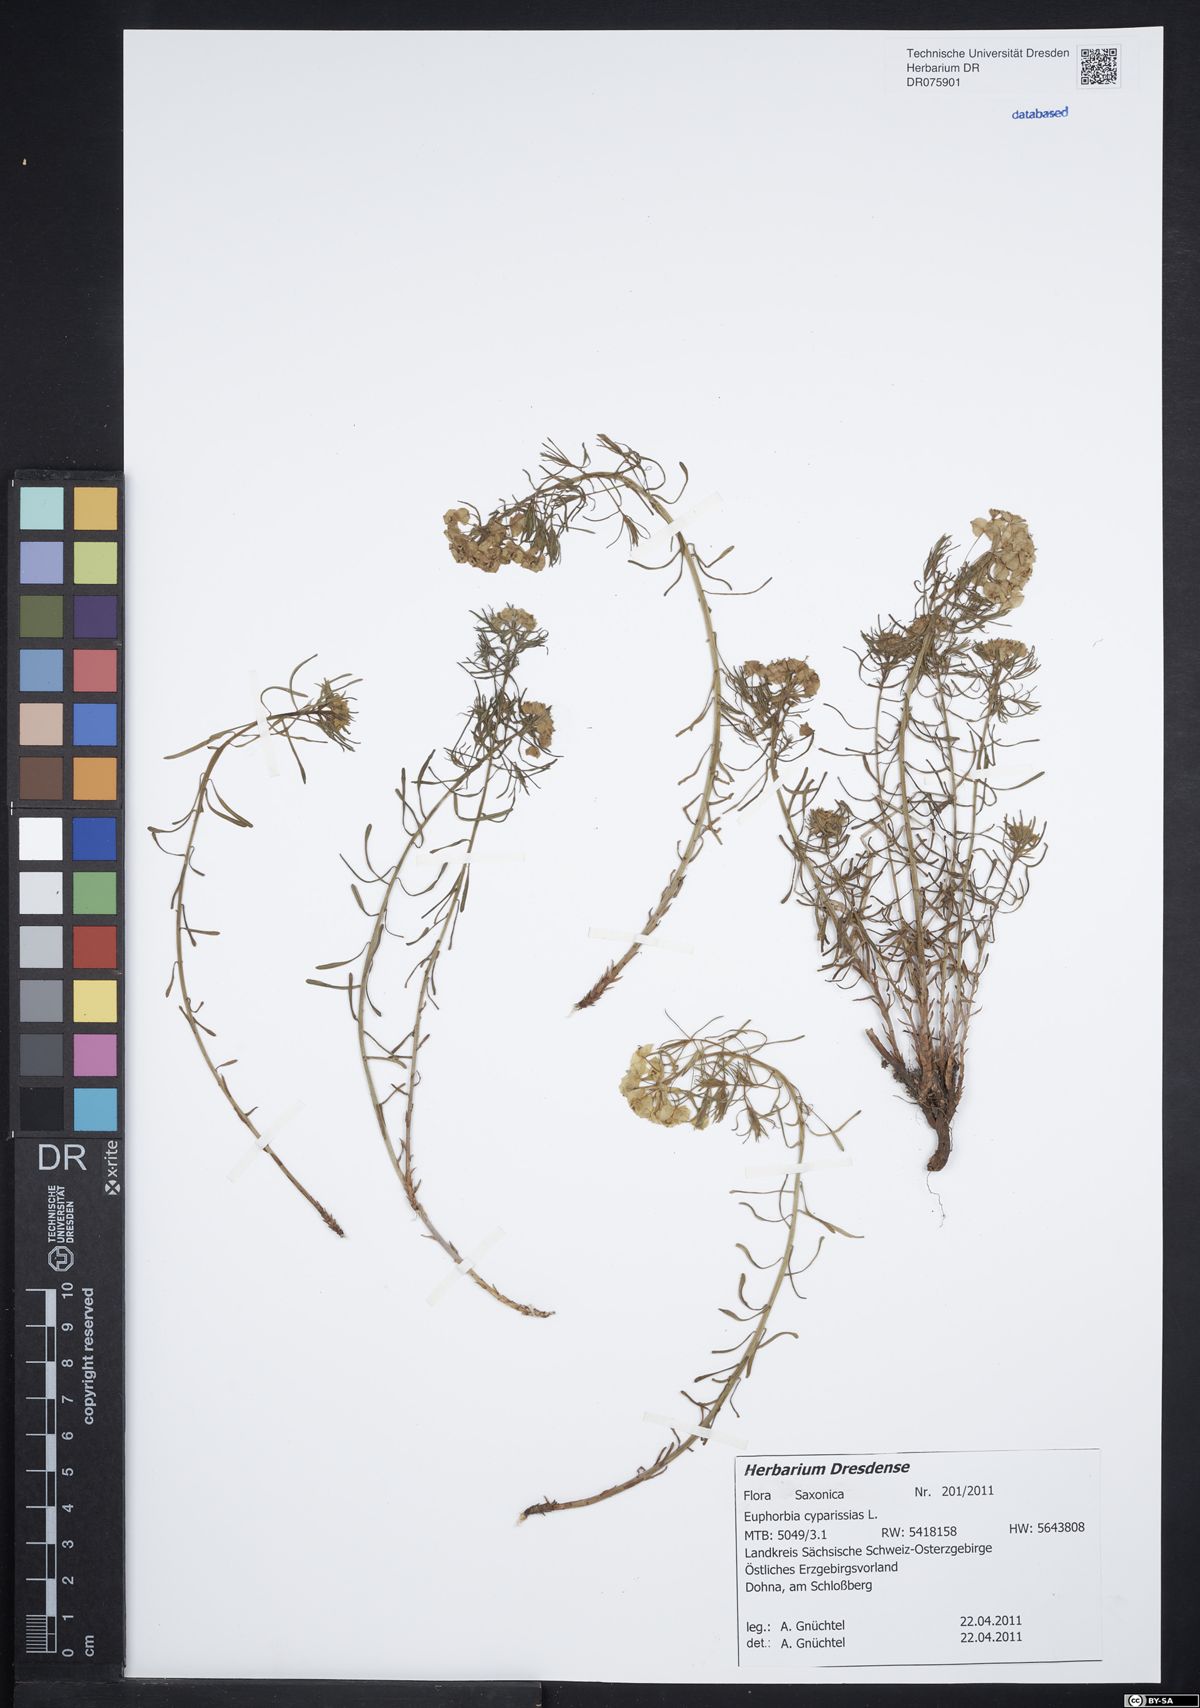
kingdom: Plantae
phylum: Tracheophyta
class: Magnoliopsida
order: Malpighiales
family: Euphorbiaceae
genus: Euphorbia
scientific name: Euphorbia cyparissias
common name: Cypress spurge
